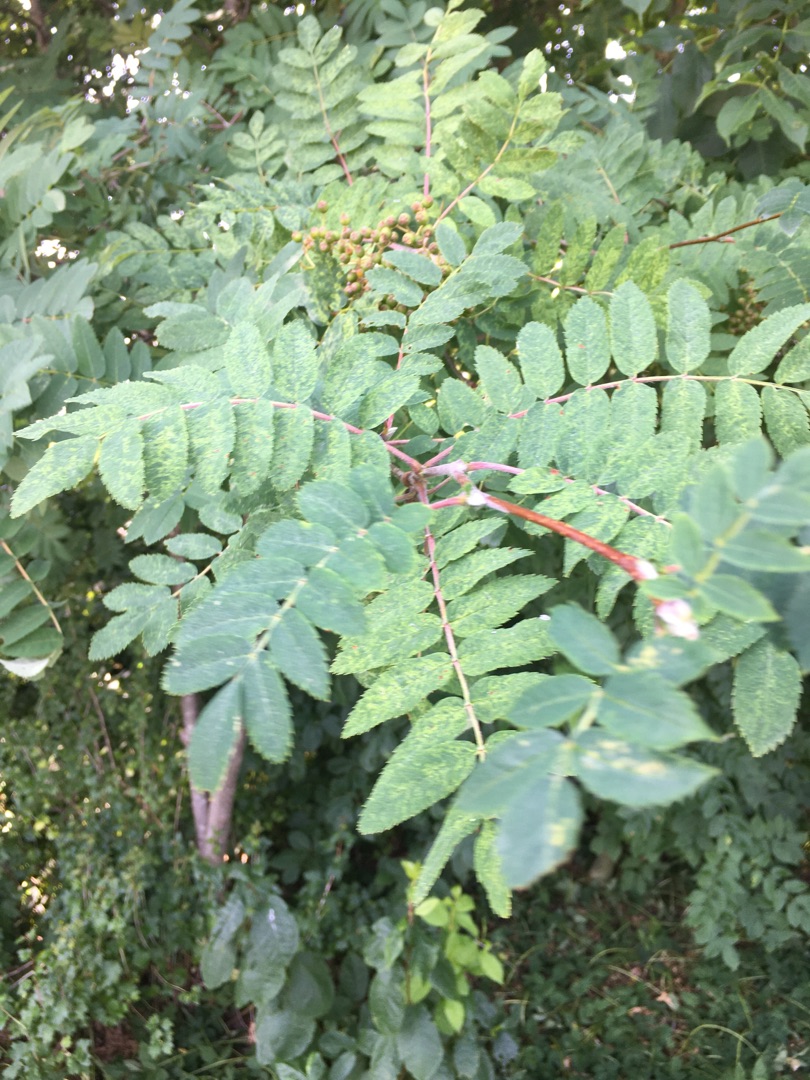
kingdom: Plantae
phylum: Tracheophyta
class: Magnoliopsida
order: Rosales
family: Rosaceae
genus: Sorbus
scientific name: Sorbus aucuparia
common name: Almindelig røn
